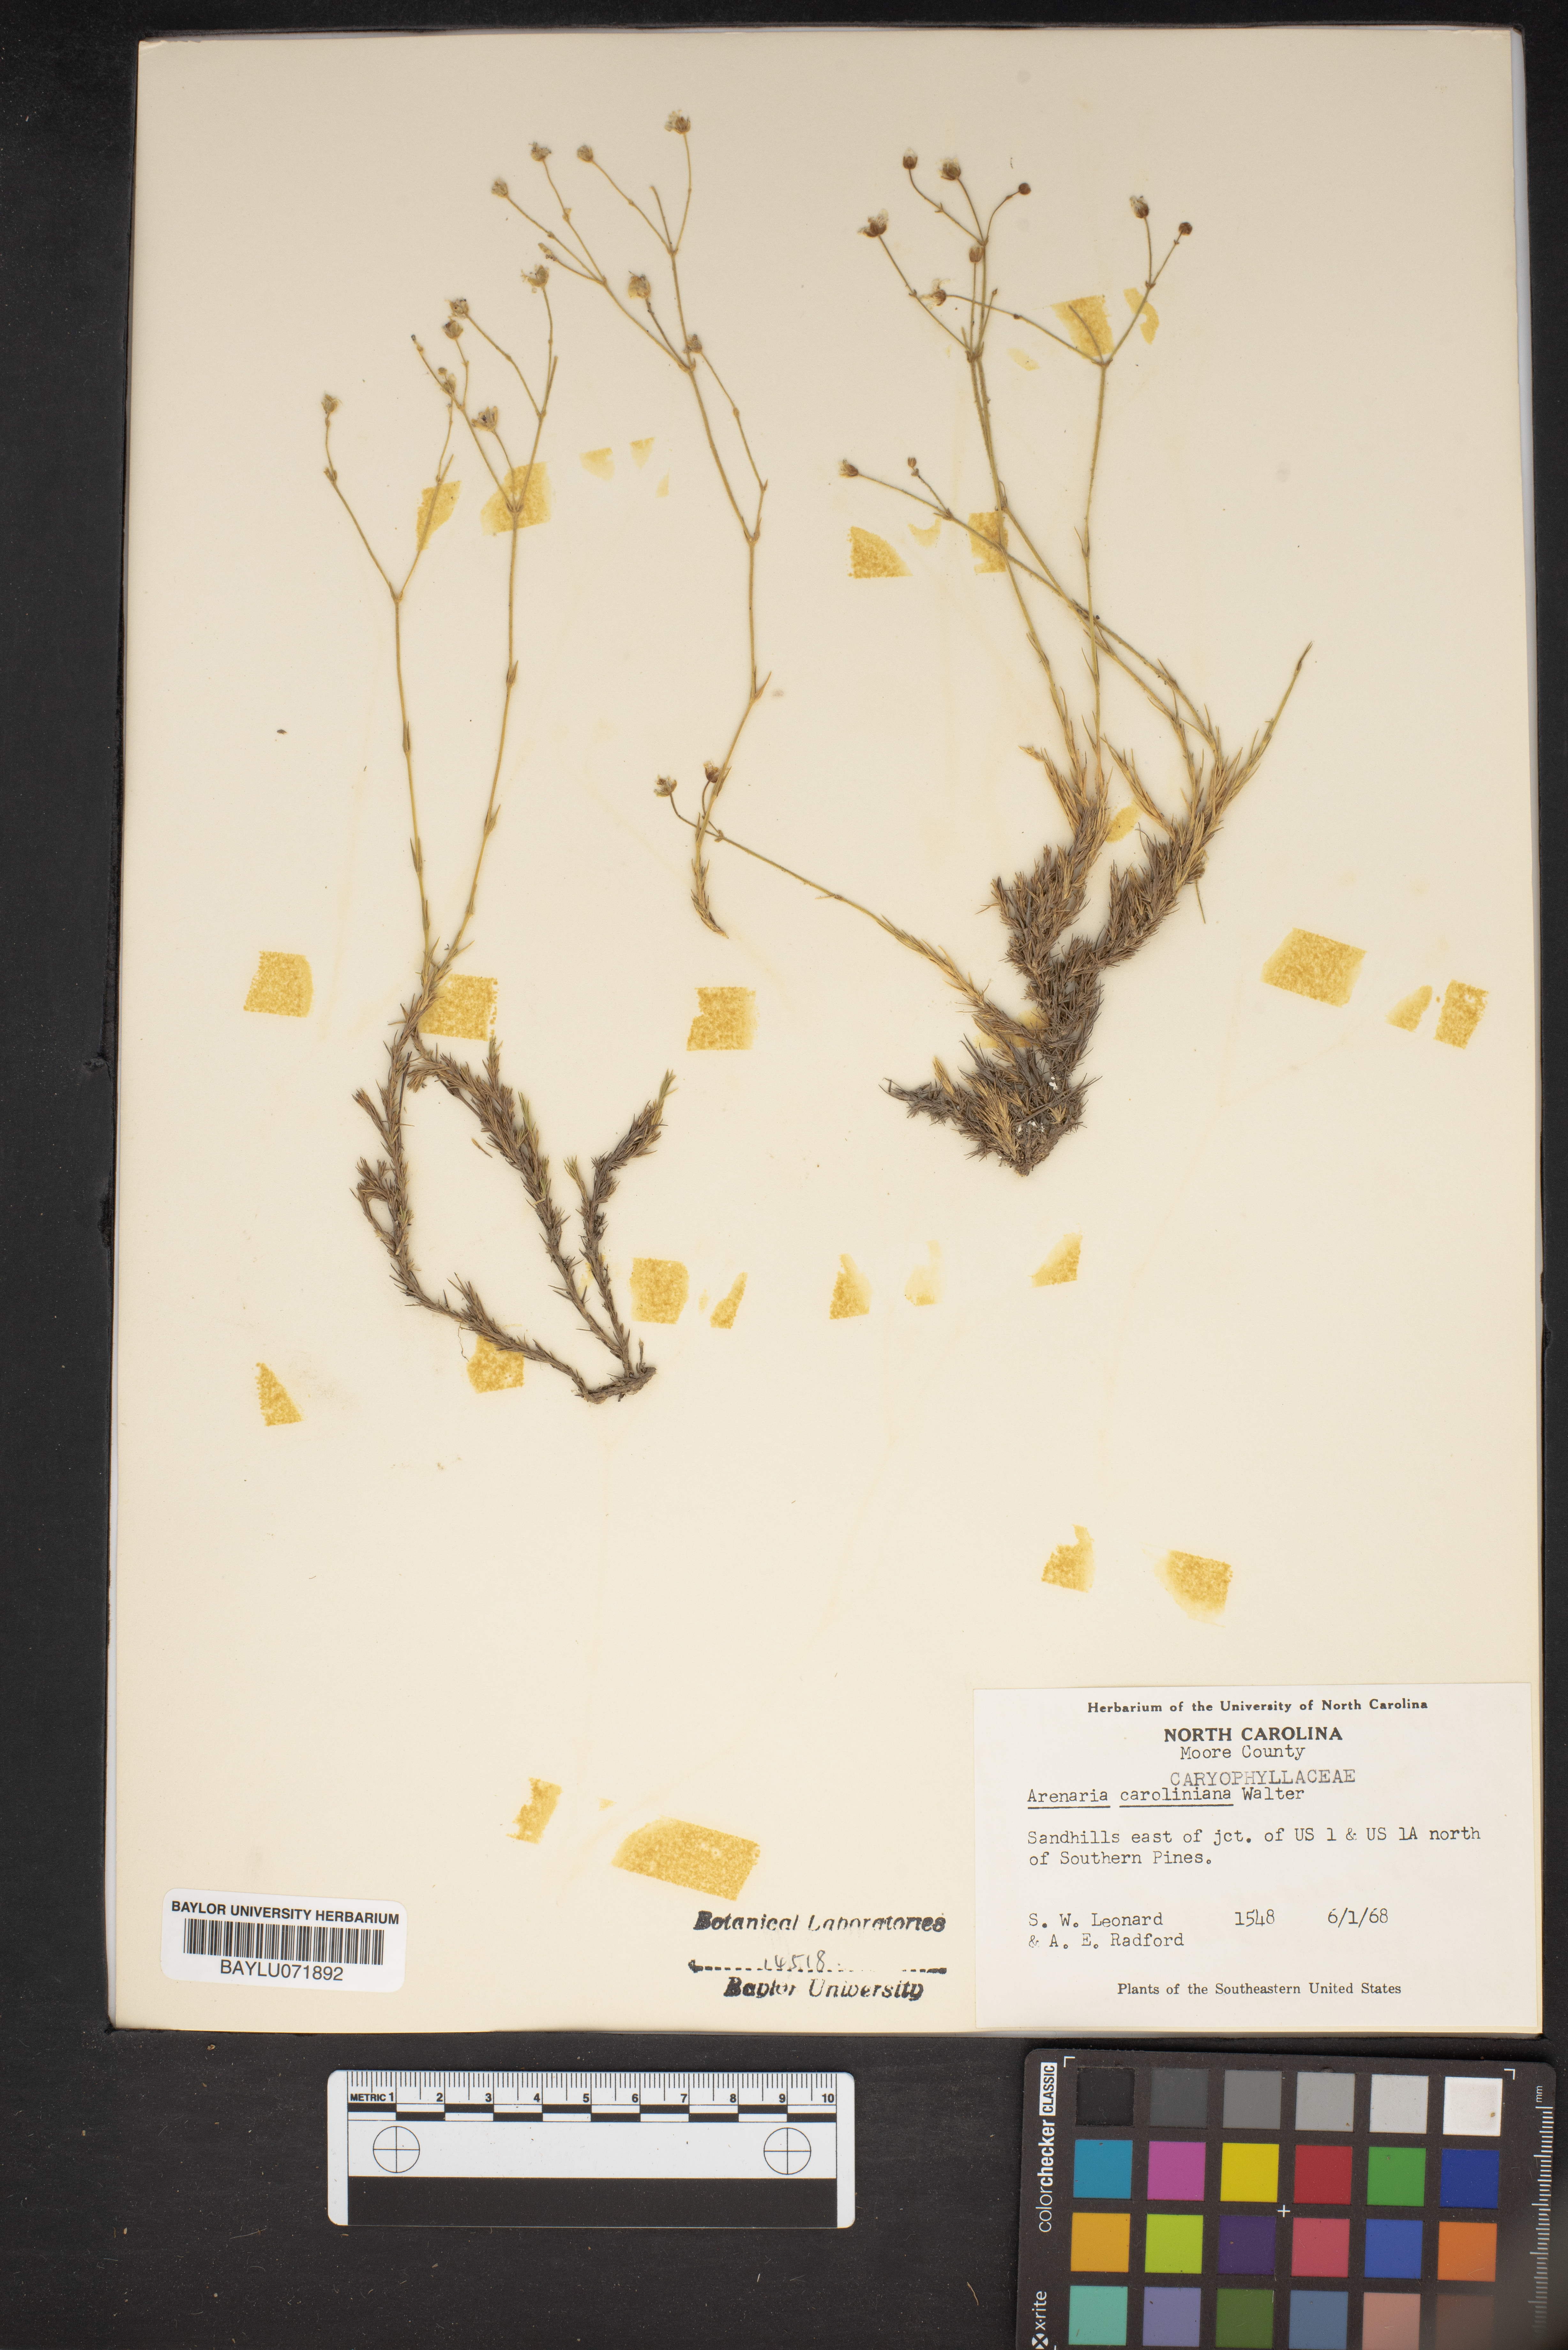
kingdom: Plantae
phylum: Tracheophyta
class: Magnoliopsida
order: Caryophyllales
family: Caryophyllaceae
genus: Geocarpon
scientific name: Geocarpon carolinianum
